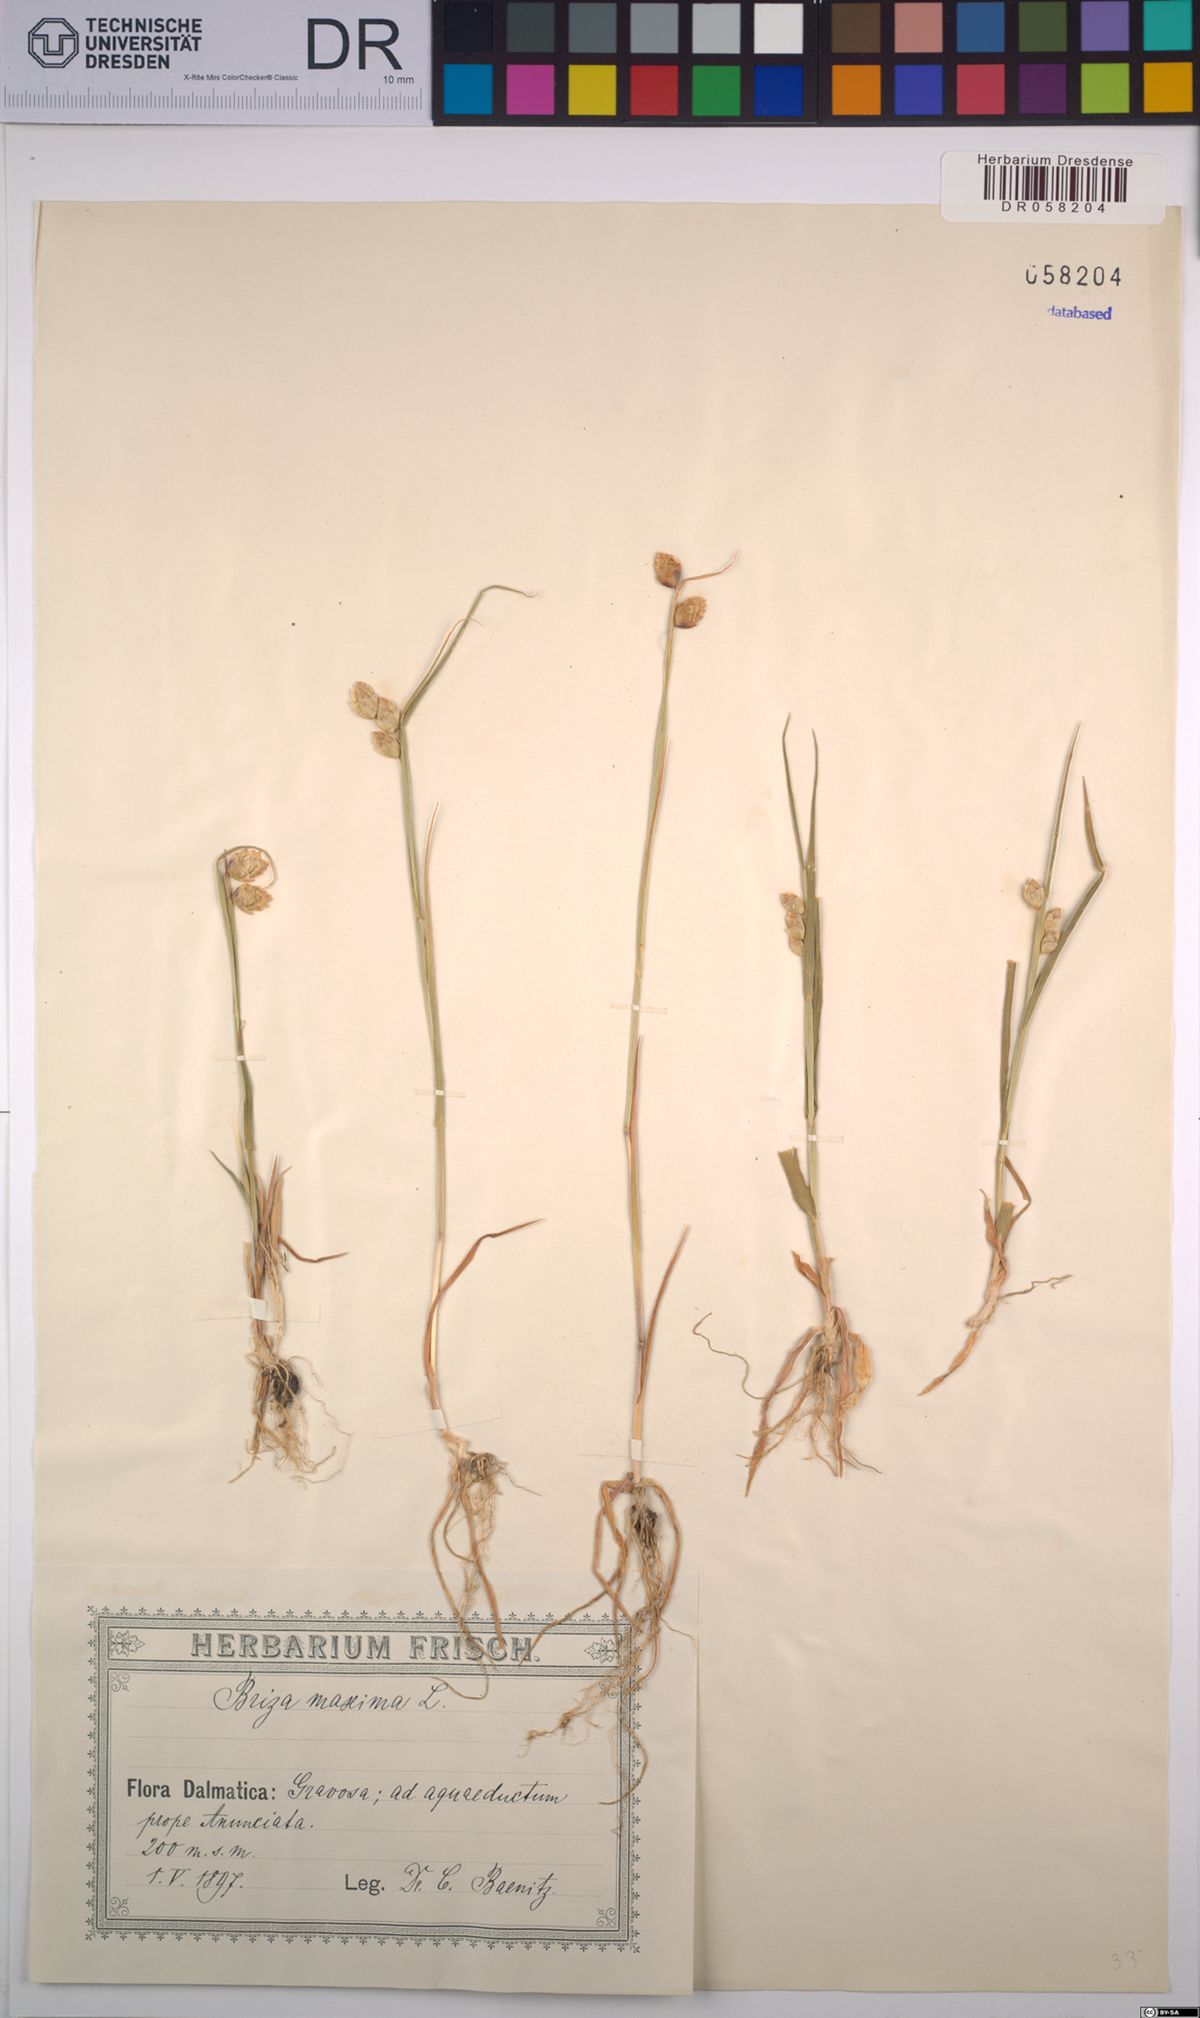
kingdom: Plantae
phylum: Tracheophyta
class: Liliopsida
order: Poales
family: Poaceae
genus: Briza
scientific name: Briza maxima
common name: Big quakinggrass
